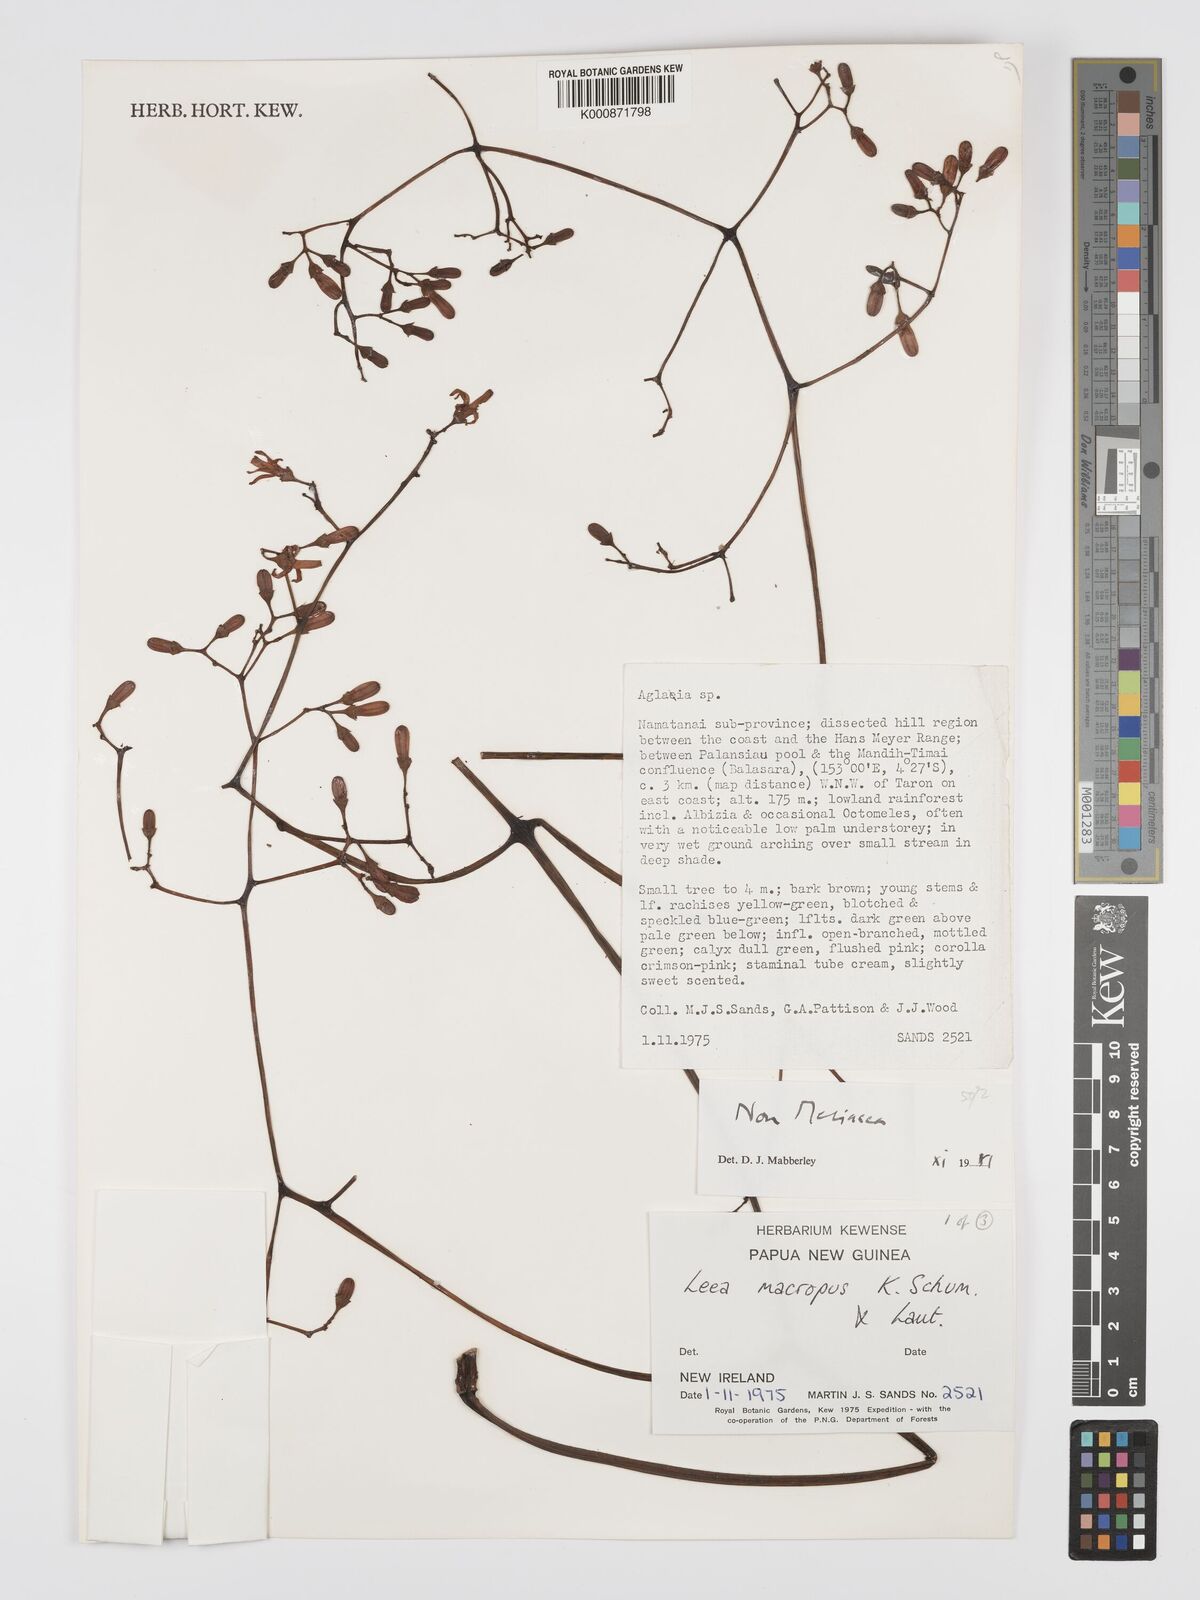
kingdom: Plantae
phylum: Tracheophyta
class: Magnoliopsida
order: Vitales
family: Vitaceae
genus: Leea
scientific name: Leea macropus
